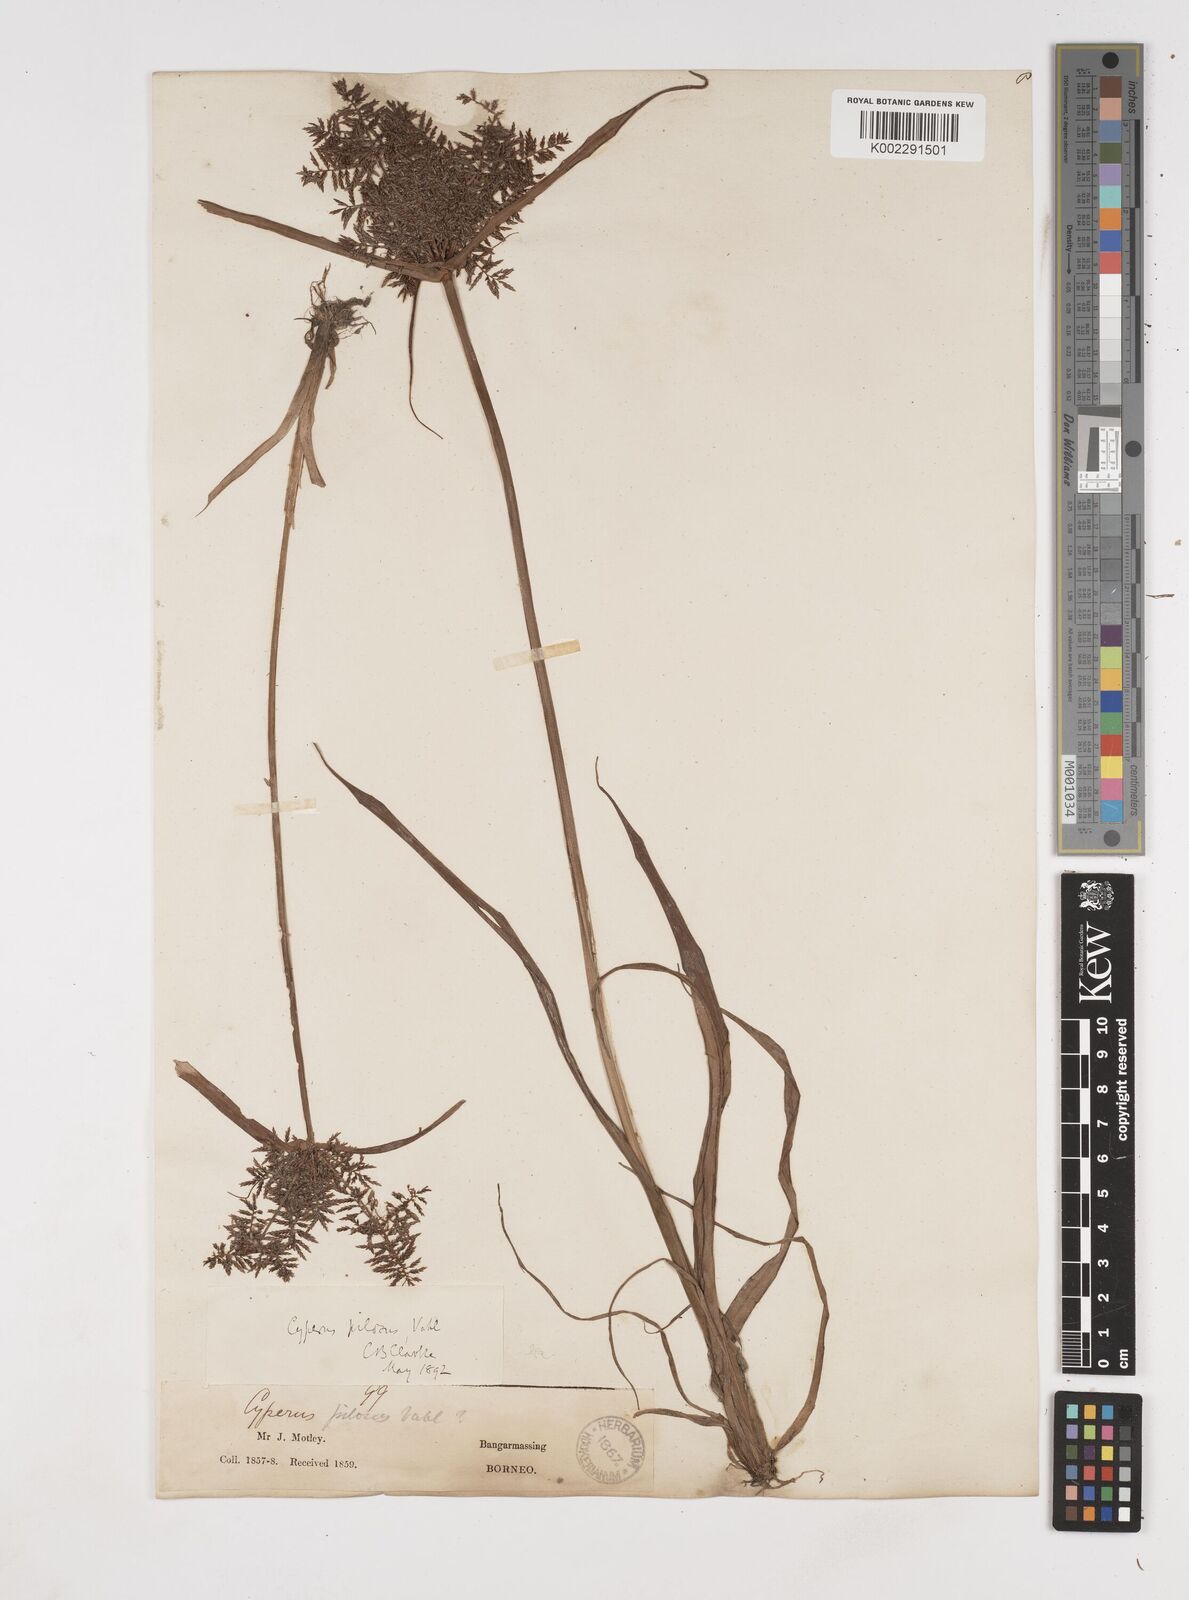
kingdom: Plantae
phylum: Tracheophyta
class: Liliopsida
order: Poales
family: Cyperaceae
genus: Cyperus
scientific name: Cyperus pilosus
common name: Fuzzy flatsedge
